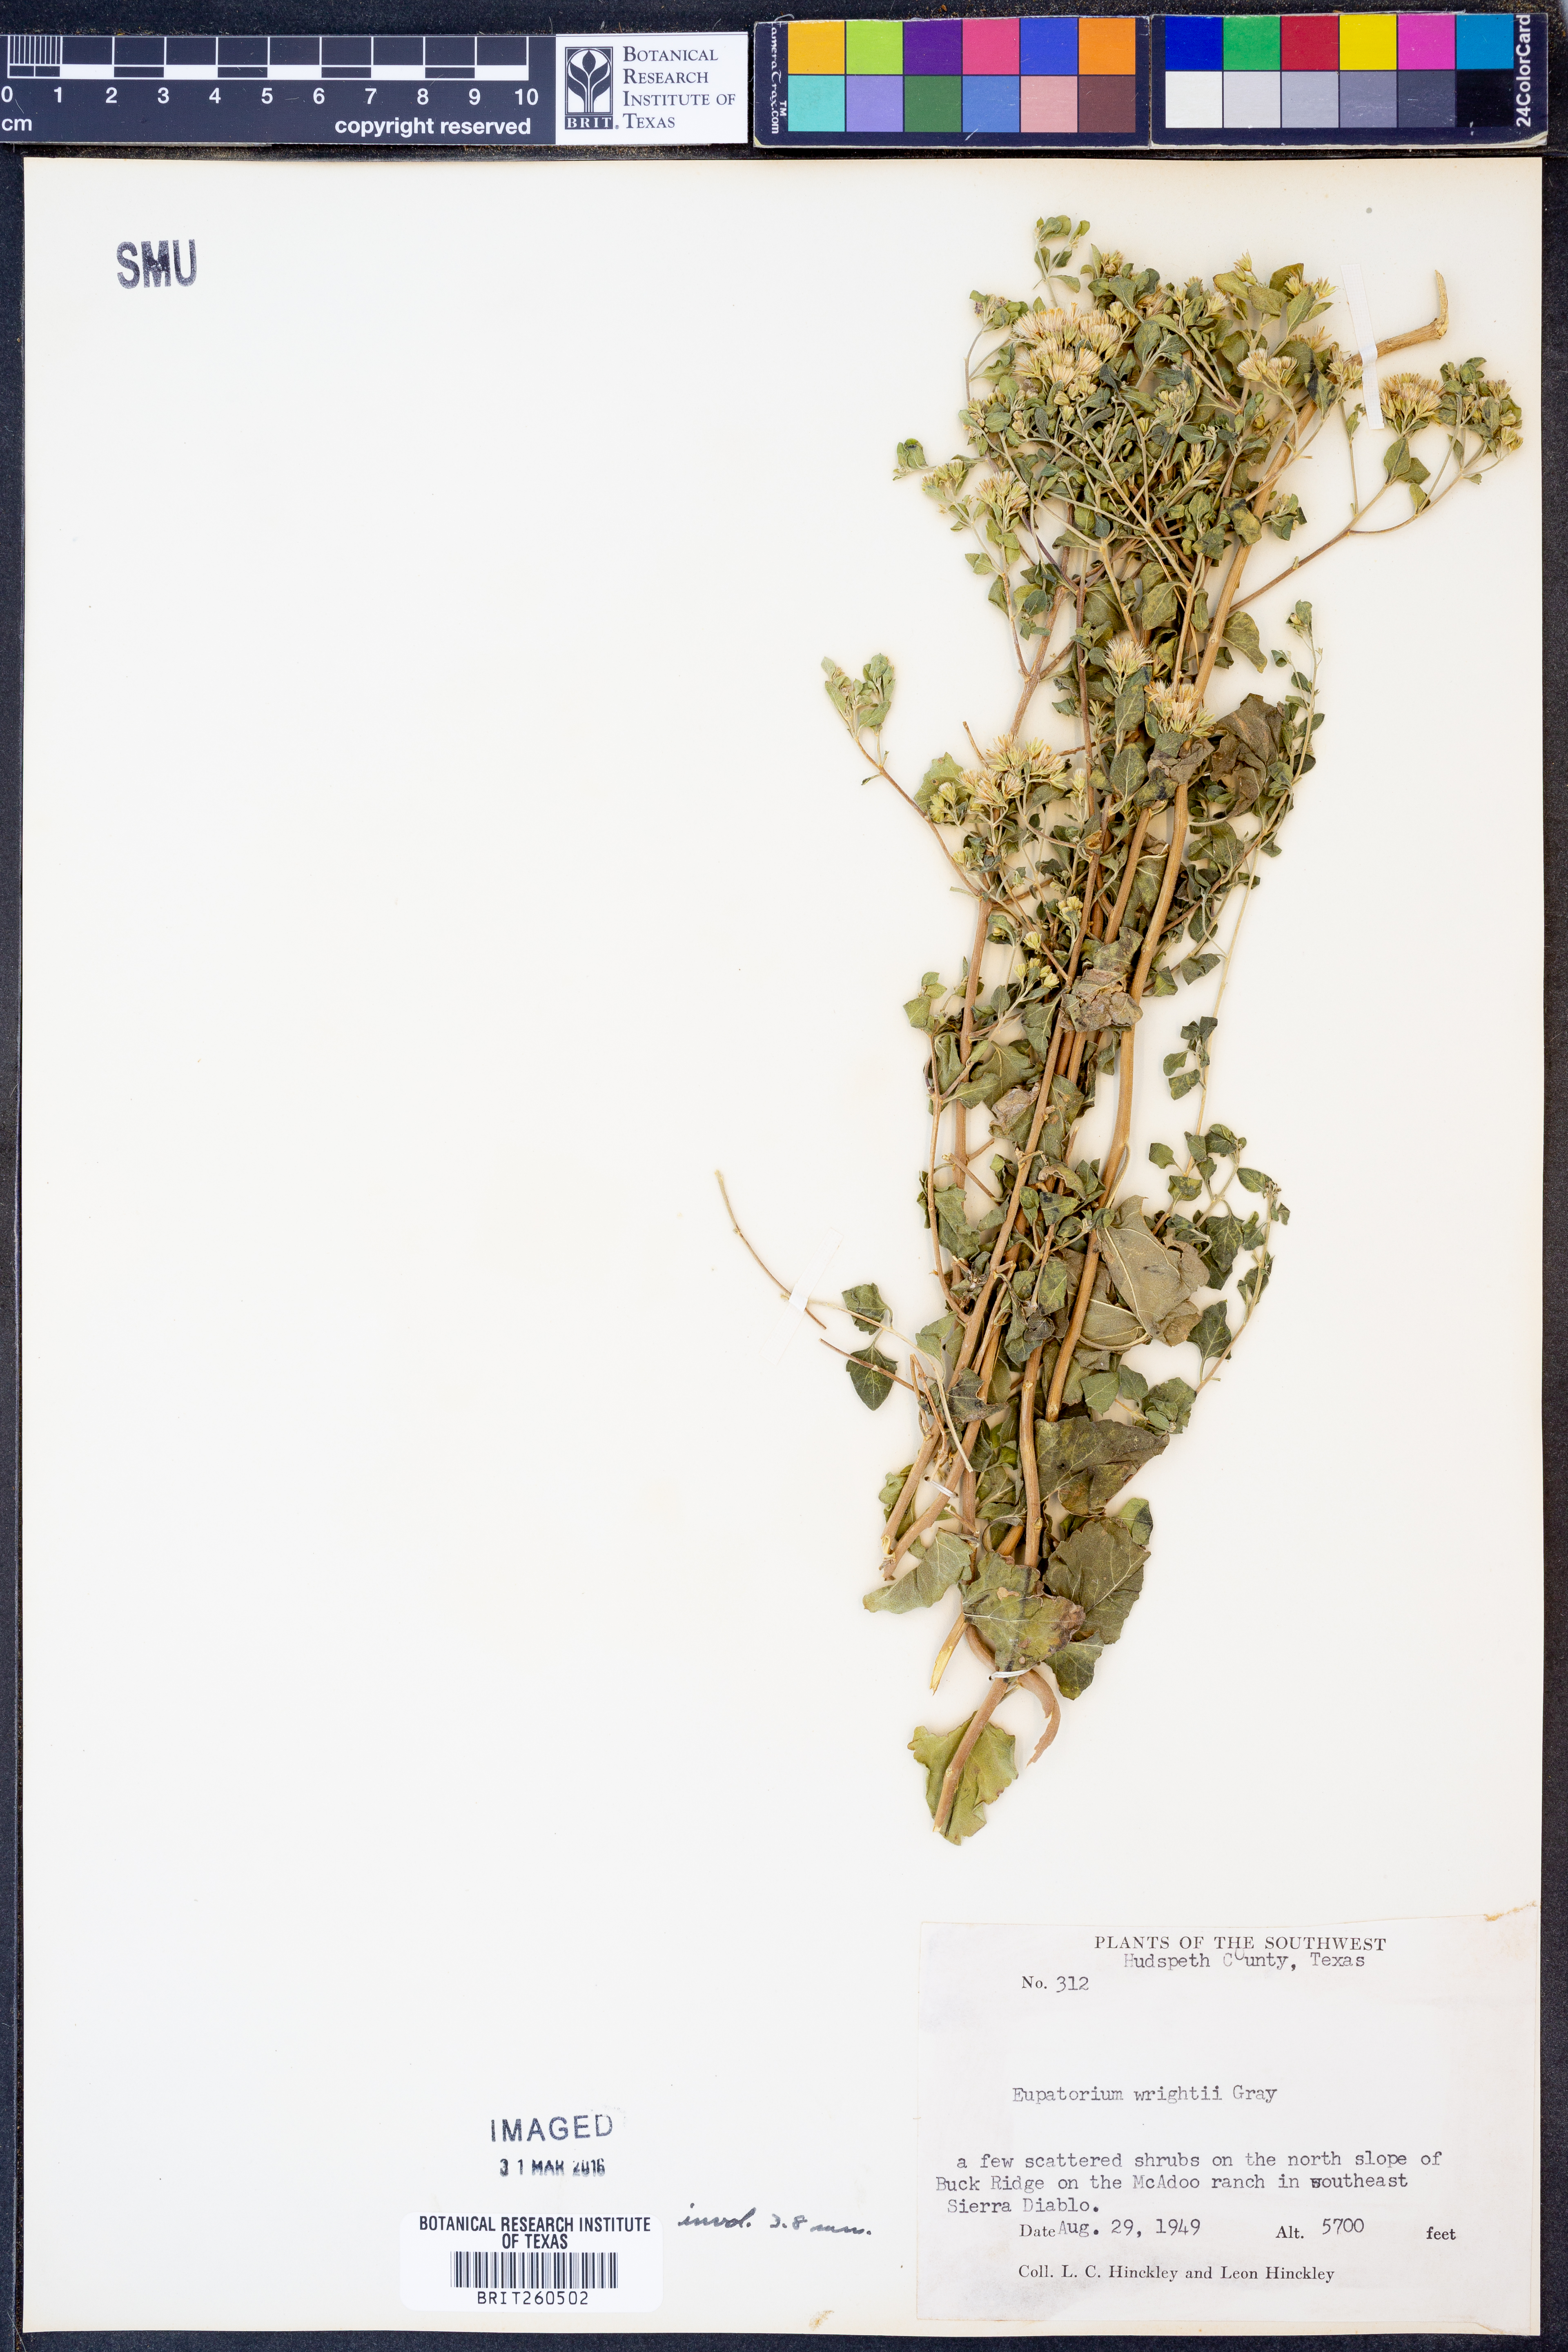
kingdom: Plantae
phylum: Tracheophyta
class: Magnoliopsida
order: Asterales
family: Asteraceae
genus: Ageratina
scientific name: Ageratina wrightii
